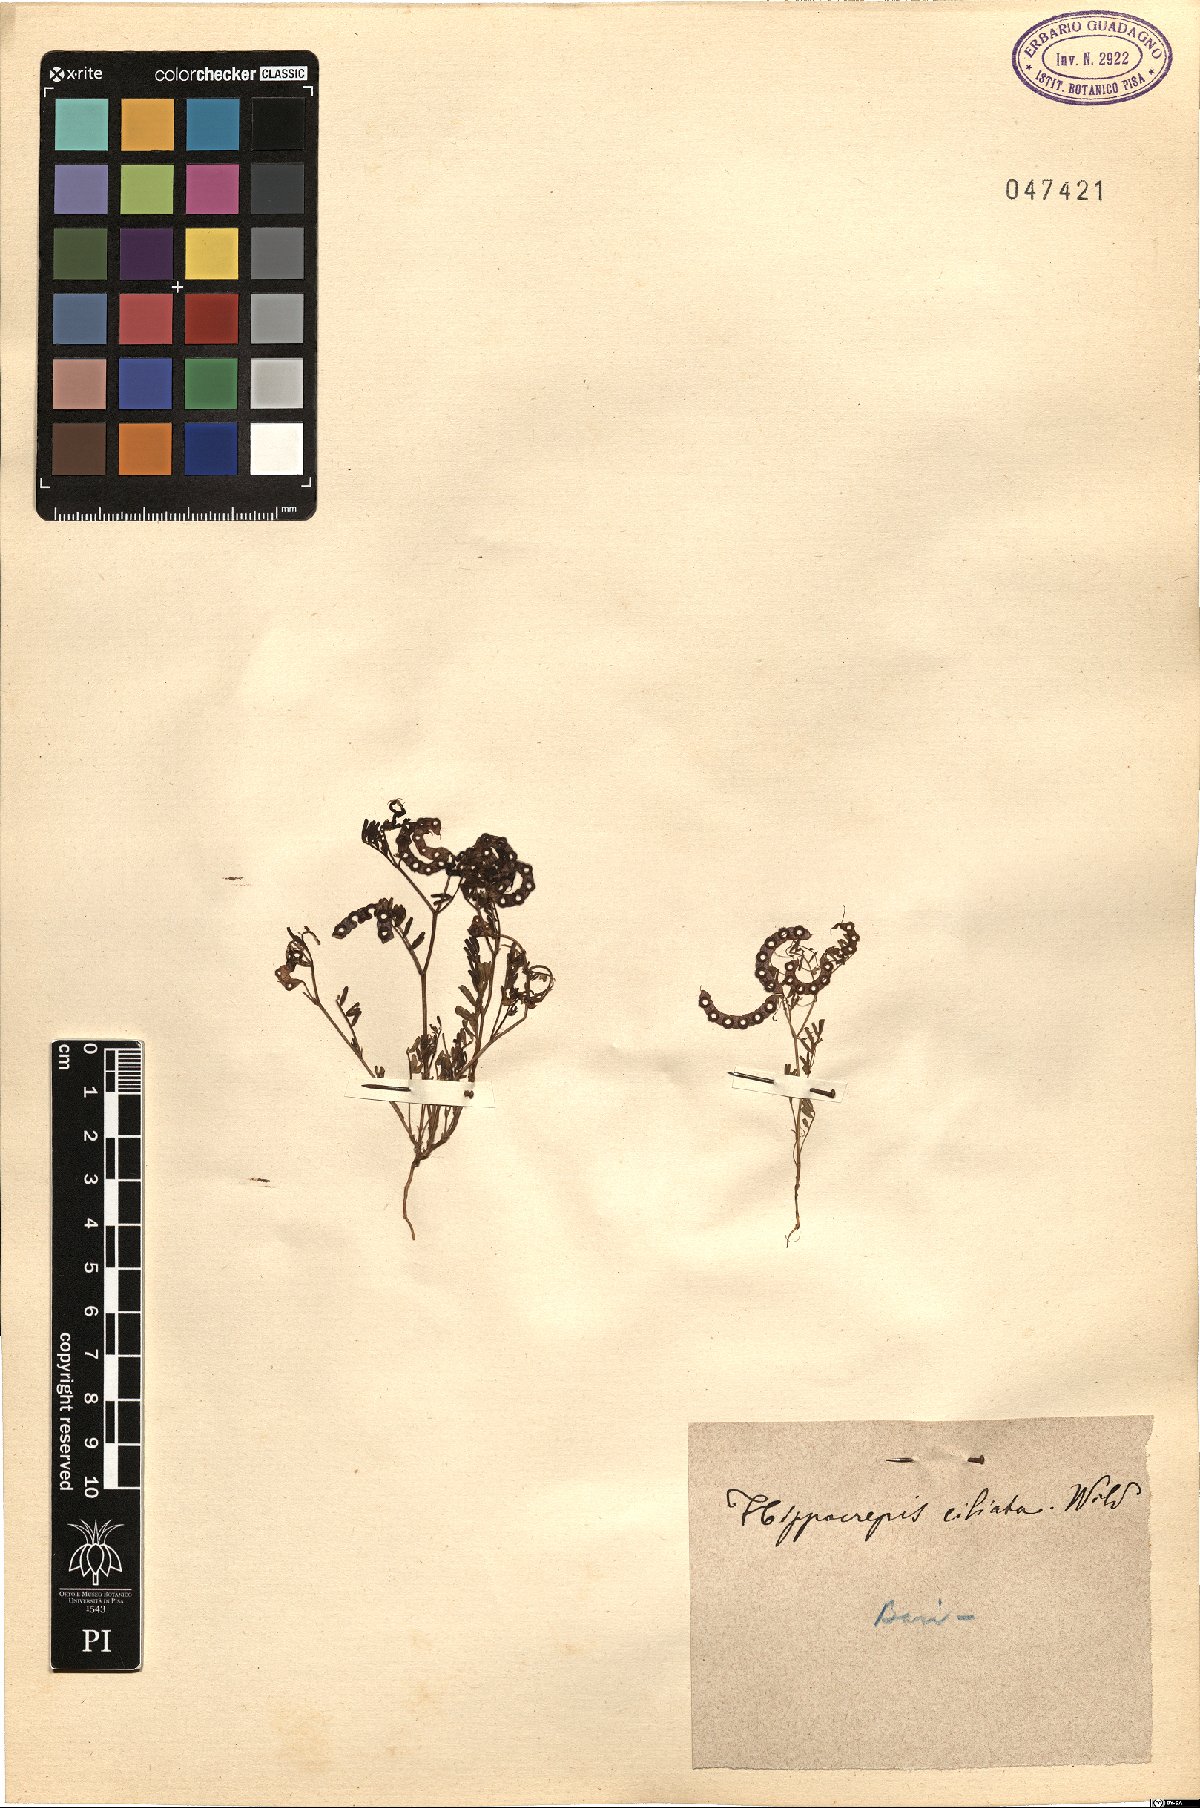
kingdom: Plantae
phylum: Tracheophyta
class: Magnoliopsida
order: Fabales
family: Fabaceae
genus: Hippocrepis
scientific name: Hippocrepis ciliata
